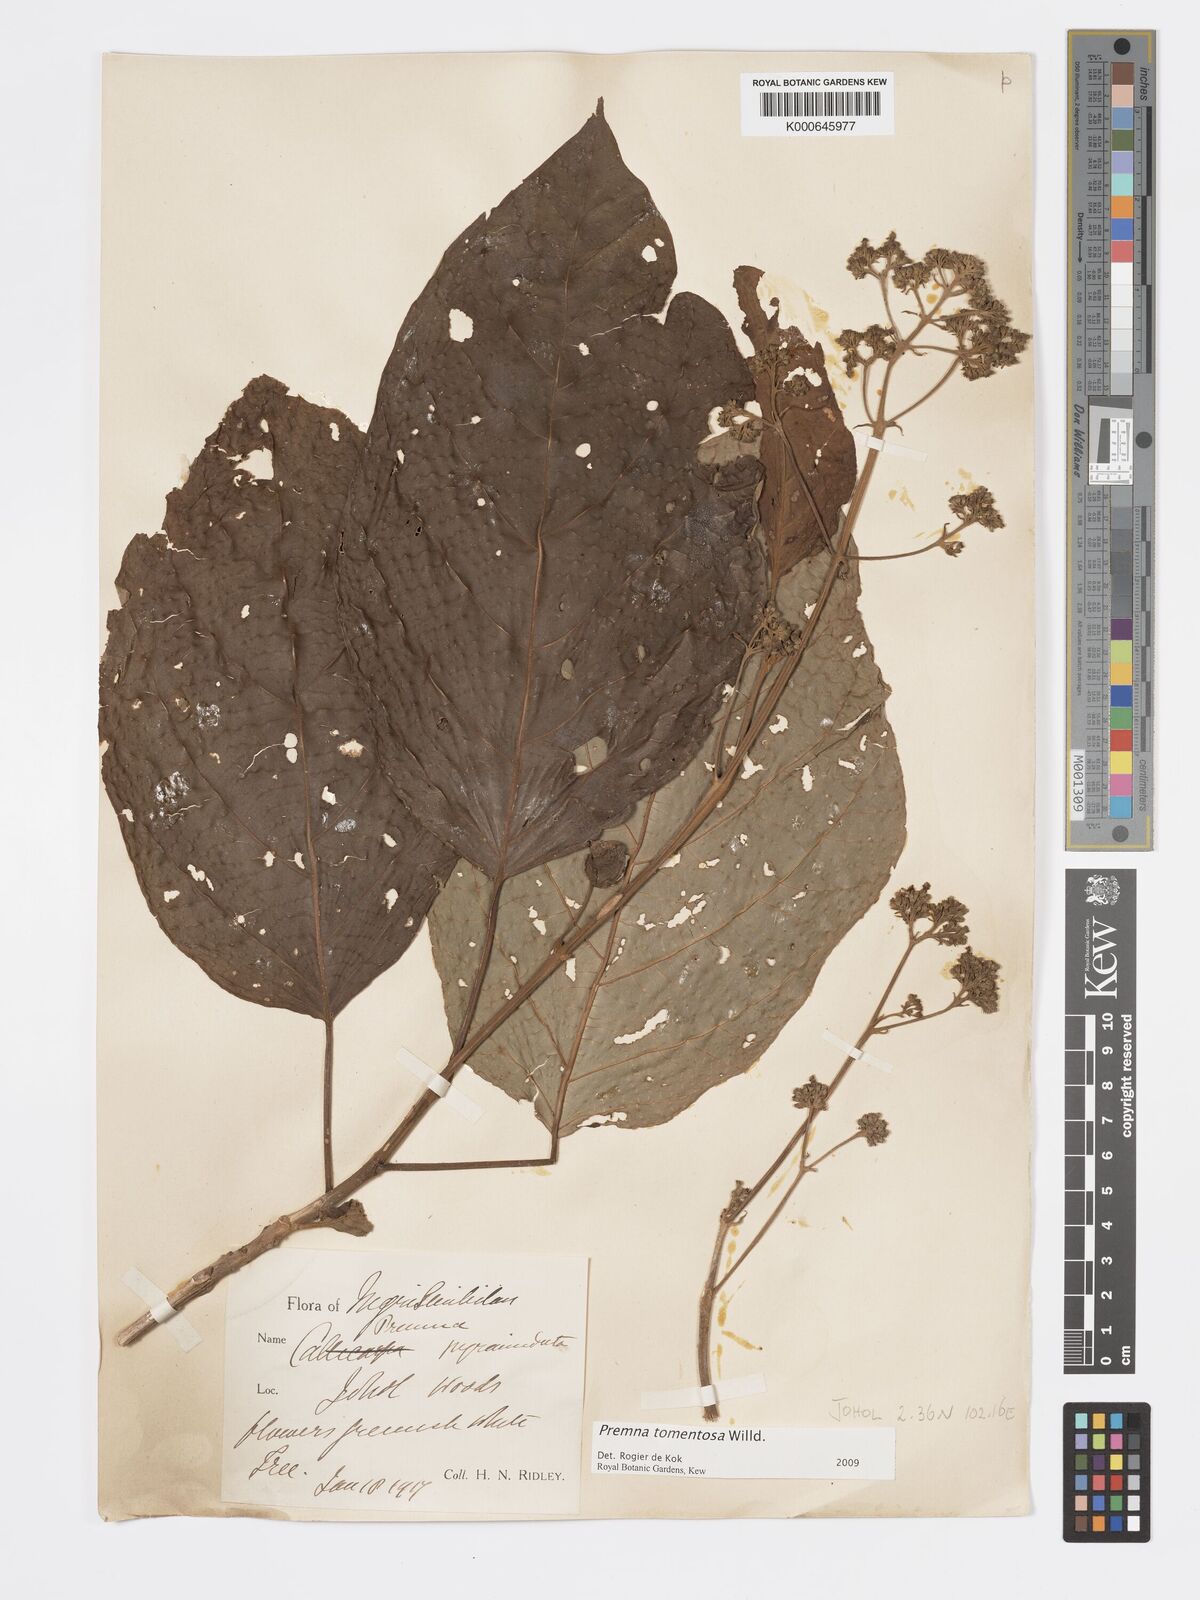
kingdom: Plantae
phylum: Tracheophyta
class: Magnoliopsida
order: Lamiales
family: Lamiaceae
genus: Premna
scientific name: Premna tomentosa
